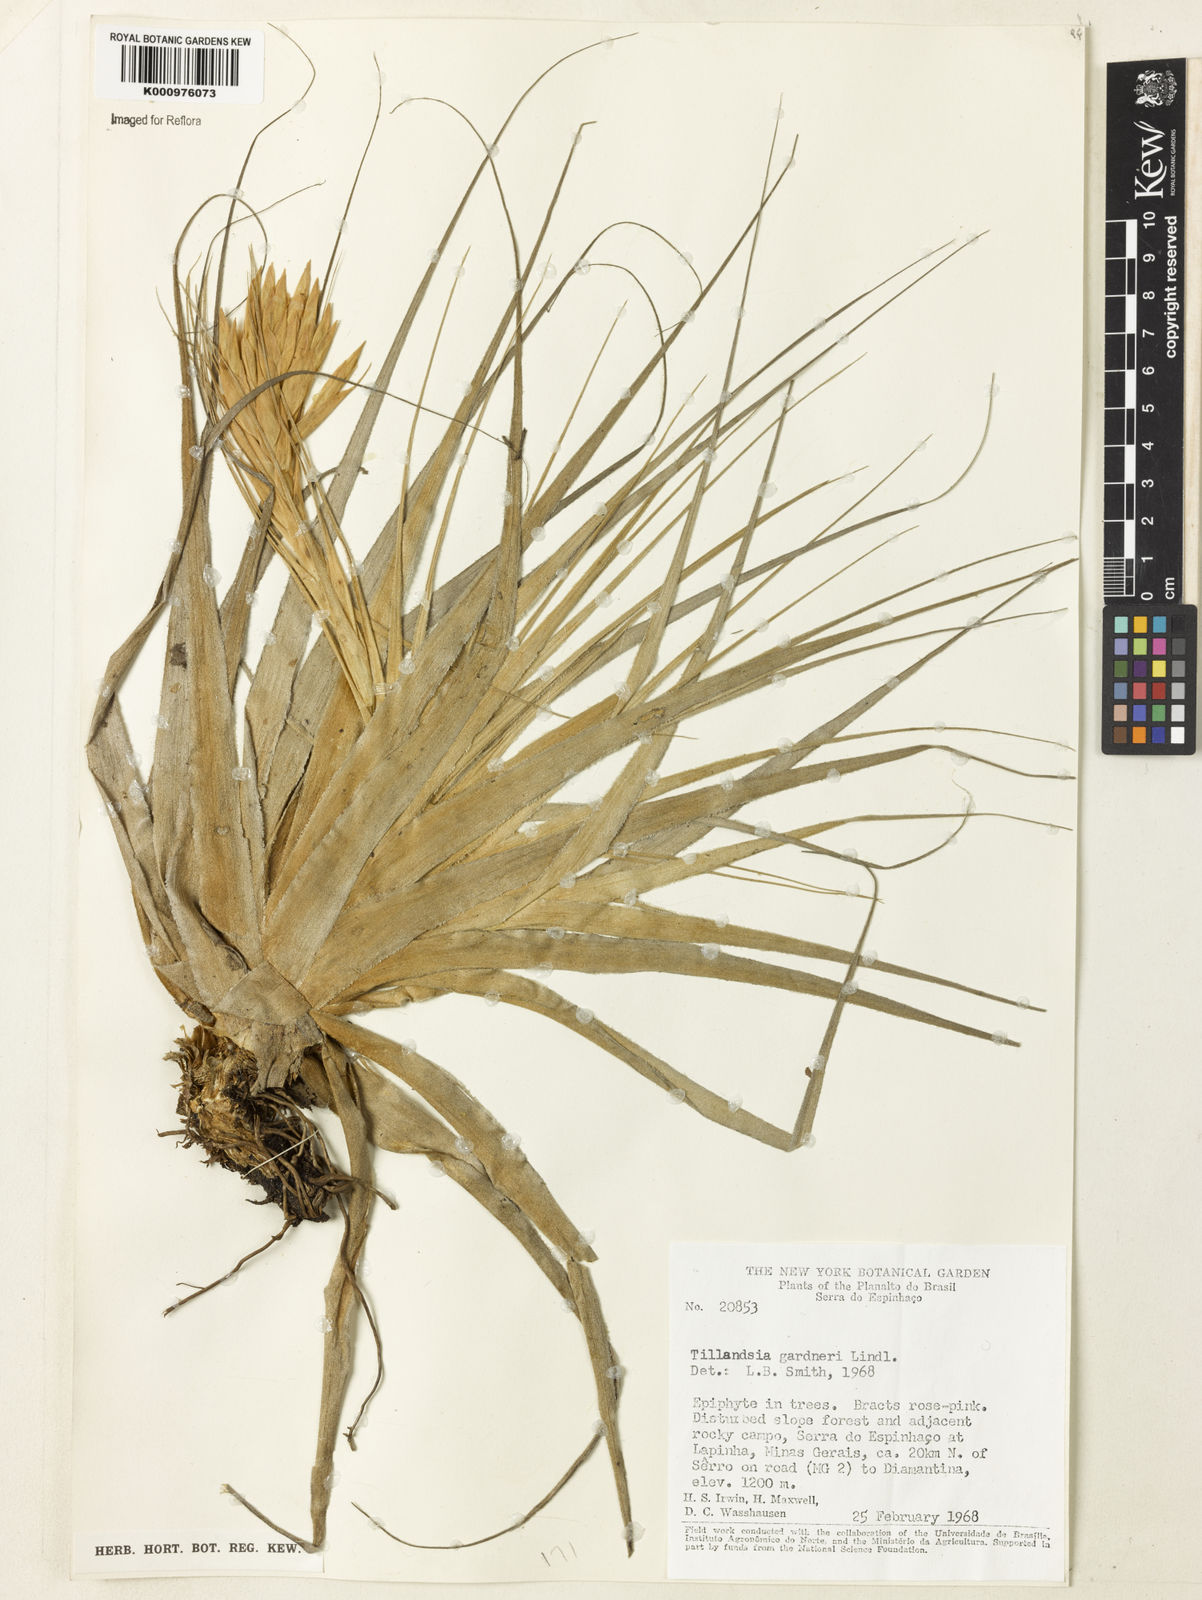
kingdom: Plantae
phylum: Tracheophyta
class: Liliopsida
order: Poales
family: Bromeliaceae
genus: Tillandsia
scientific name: Tillandsia gardneri
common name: Airplant
